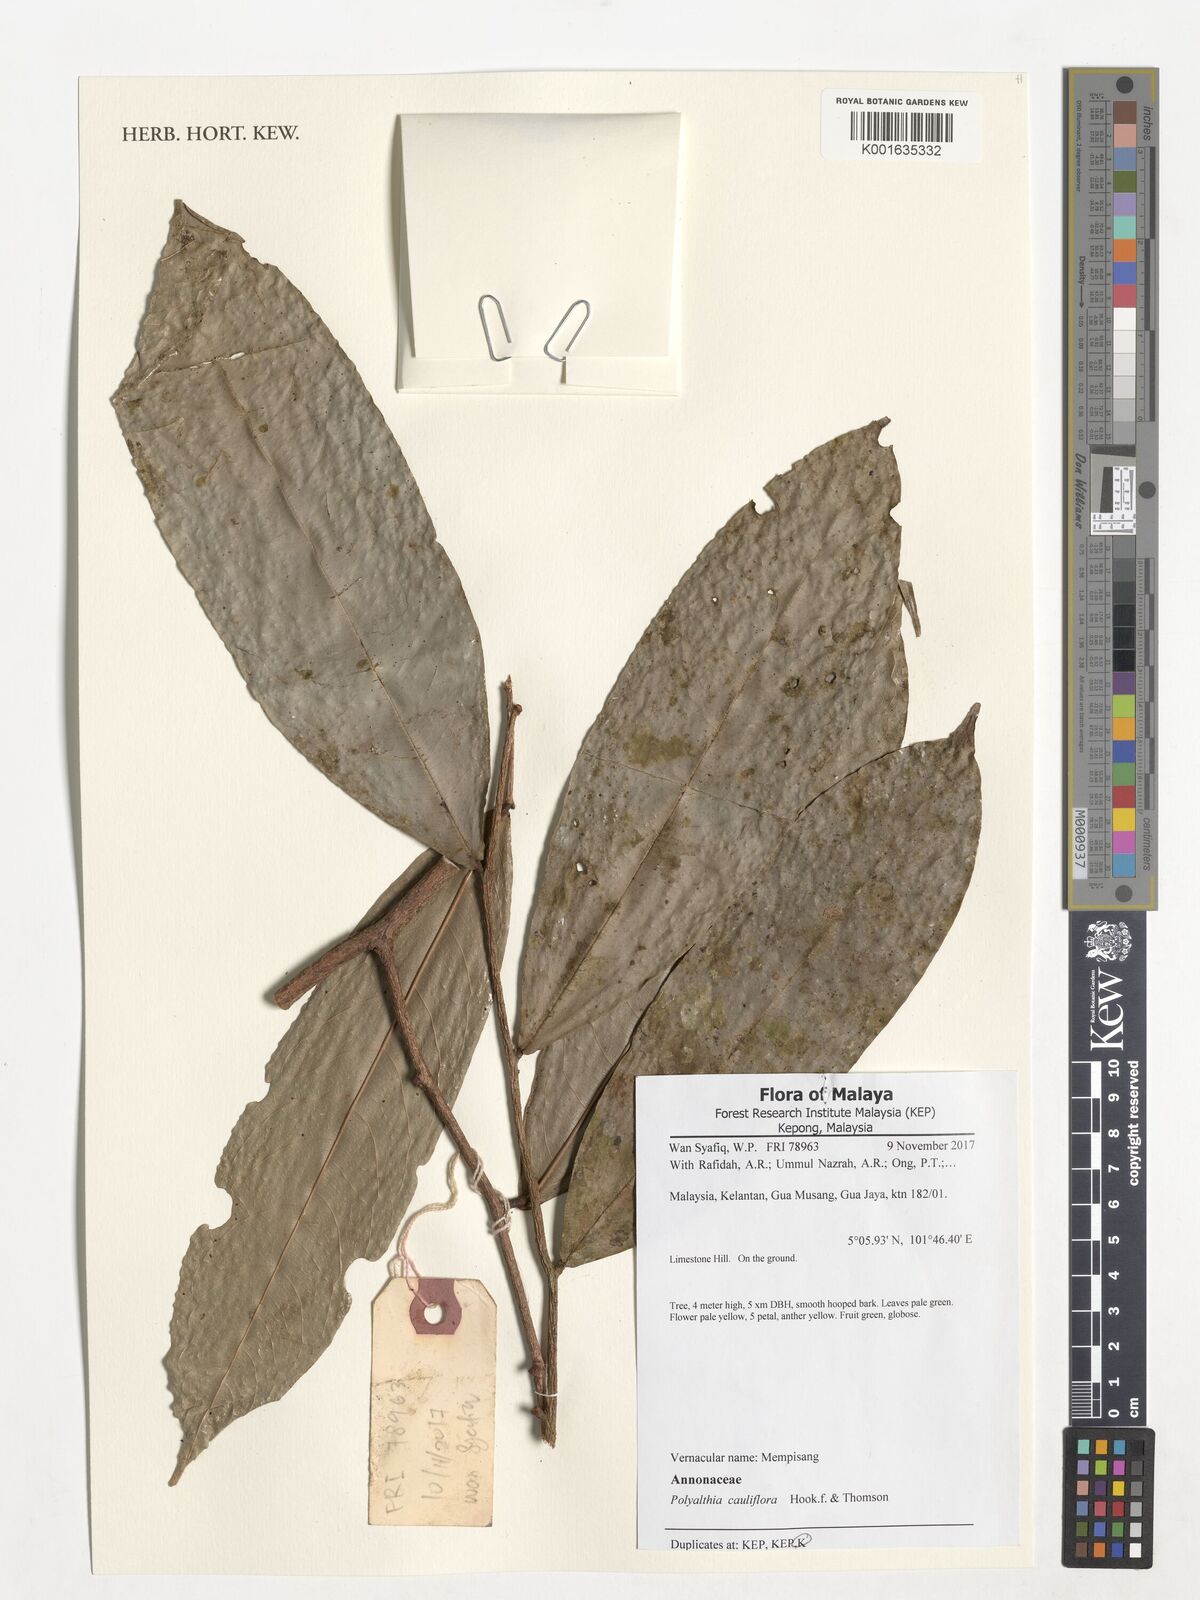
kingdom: Plantae
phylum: Tracheophyta
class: Magnoliopsida
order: Magnoliales
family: Annonaceae
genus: Polyalthia
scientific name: Polyalthia cauliflora
